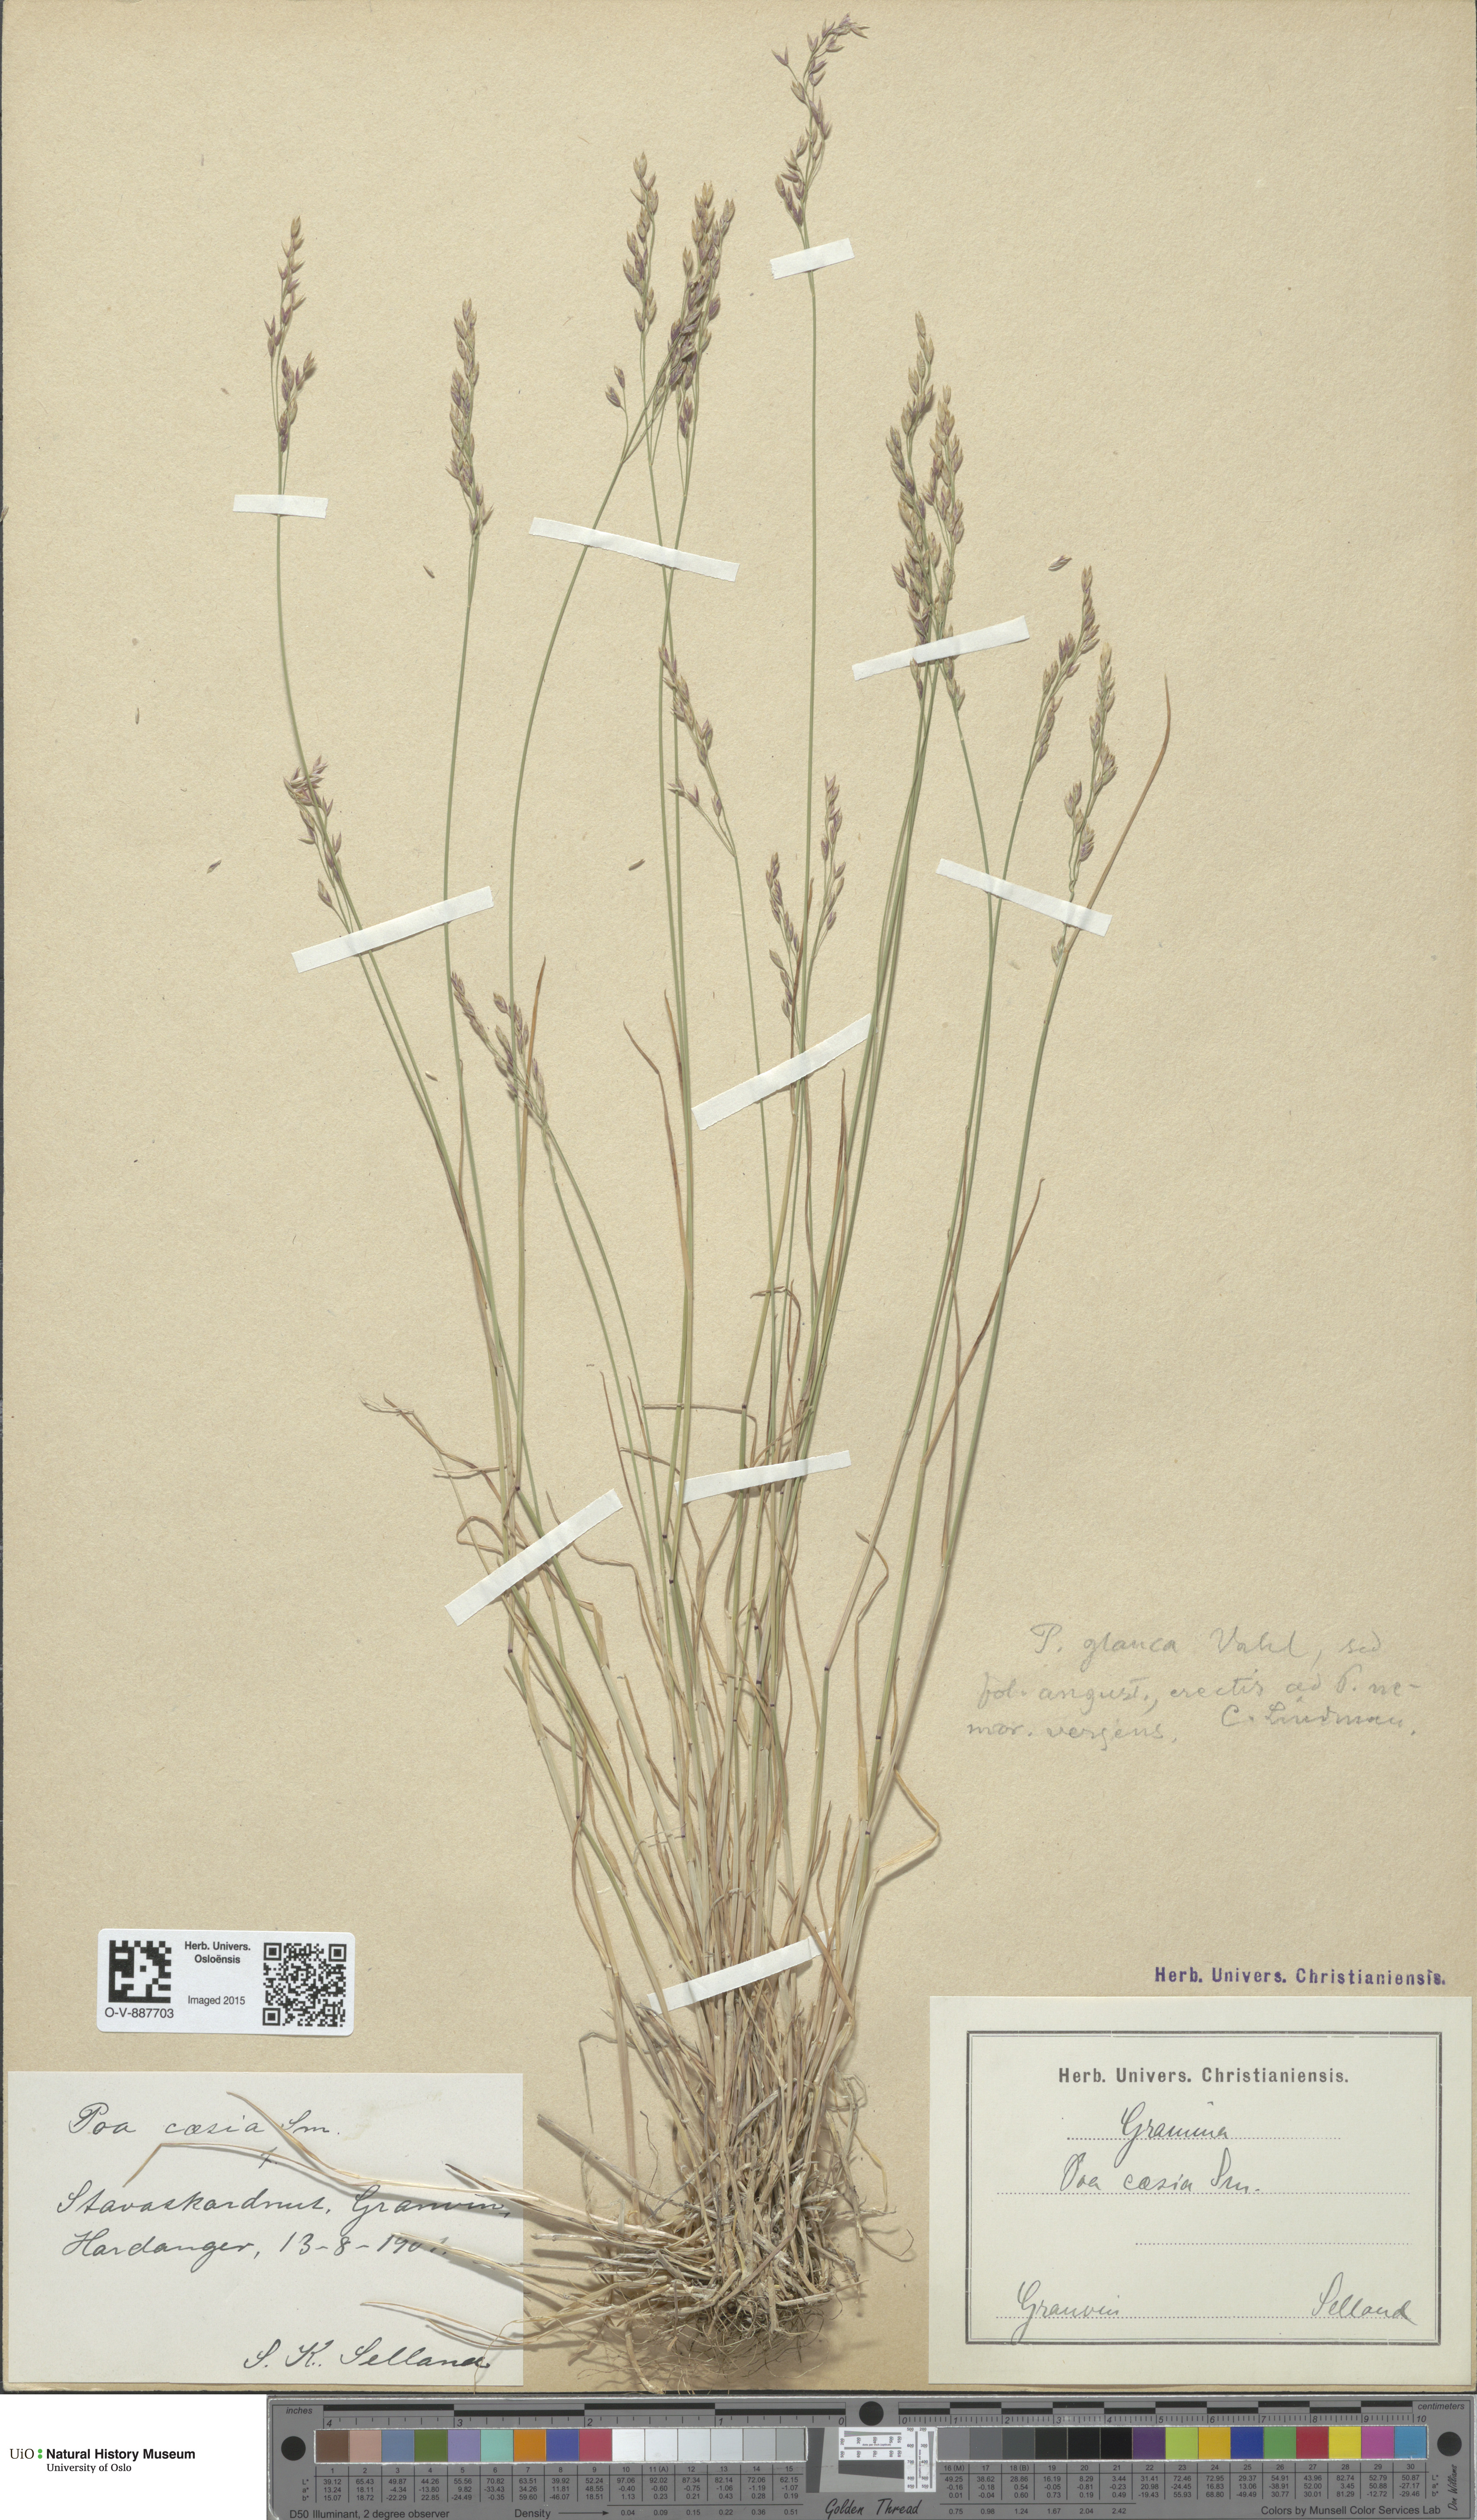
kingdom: Plantae
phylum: Tracheophyta
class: Liliopsida
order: Poales
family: Poaceae
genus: Poa
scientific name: Poa glauca
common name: Glaucous bluegrass
